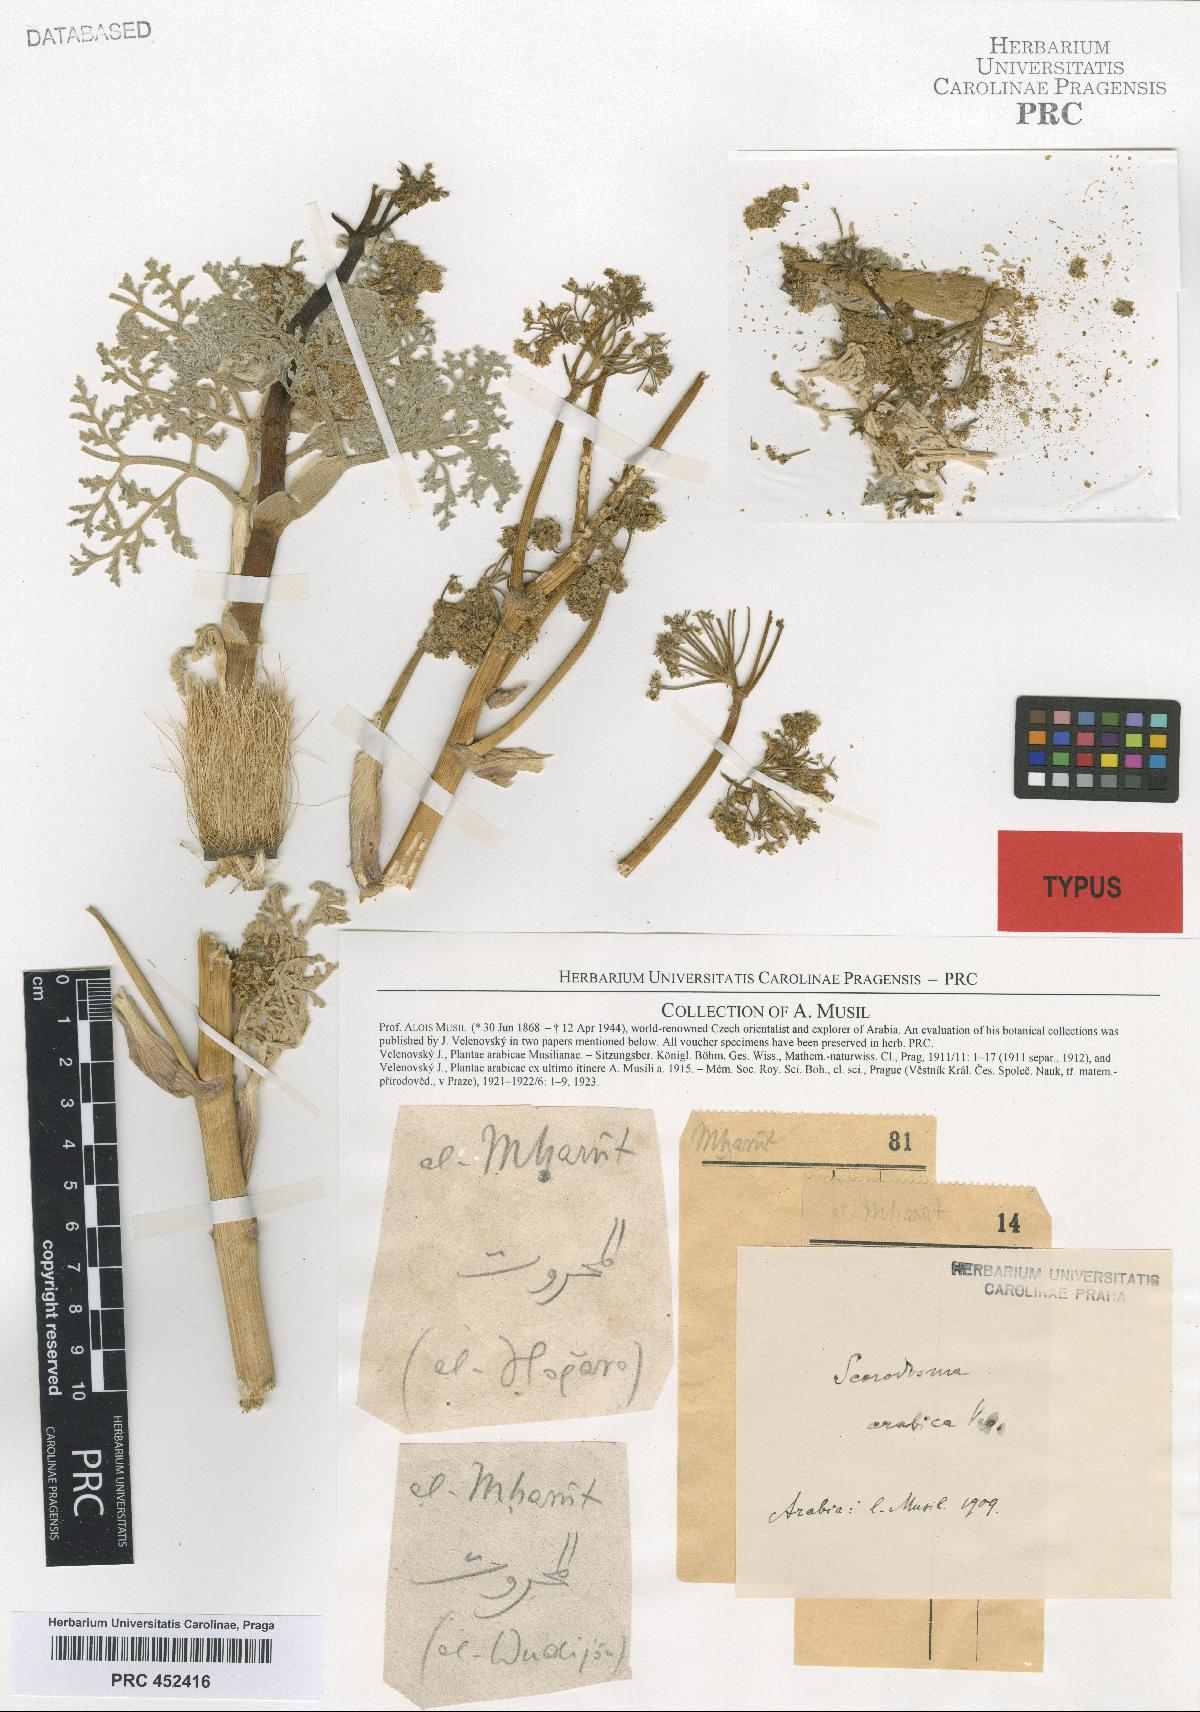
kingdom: Plantae
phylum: Tracheophyta
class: Magnoliopsida
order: Apiales
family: Apiaceae
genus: Ferula
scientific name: Ferula blanchei
